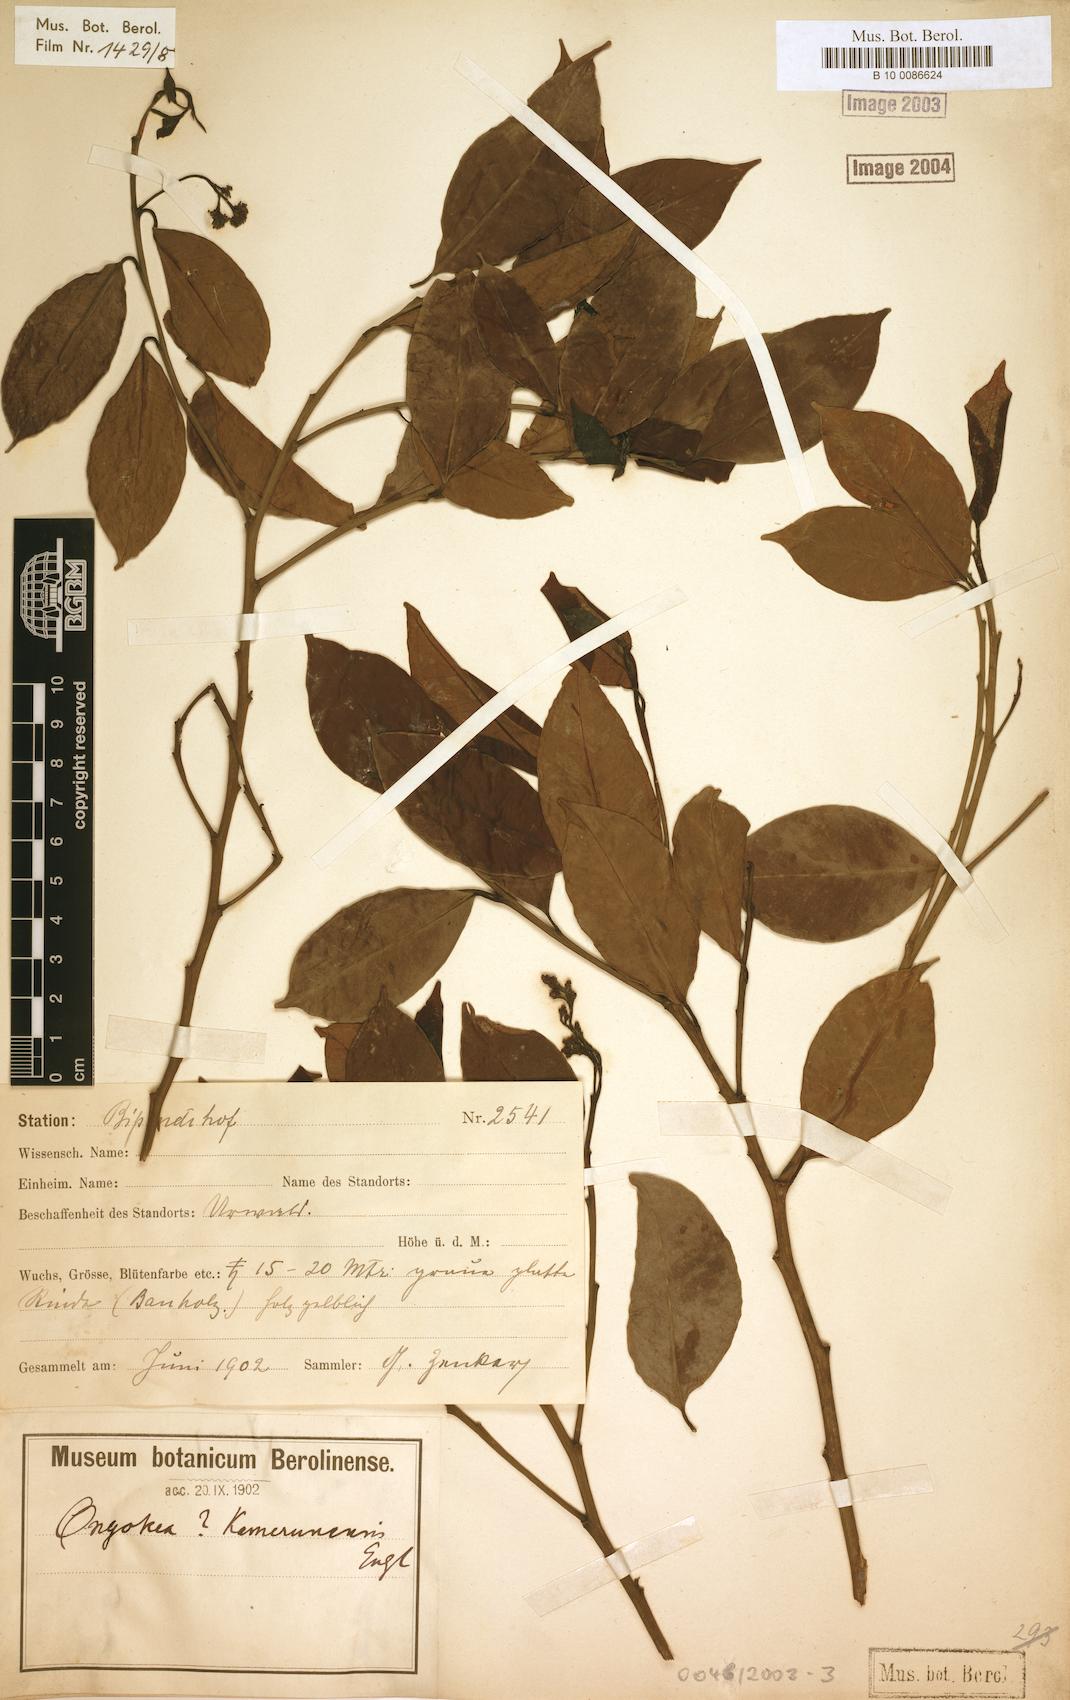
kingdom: Plantae
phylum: Tracheophyta
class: Magnoliopsida
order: Santalales
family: Aptandraceae
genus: Ongokea
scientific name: Ongokea gore
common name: Boleko-nut
